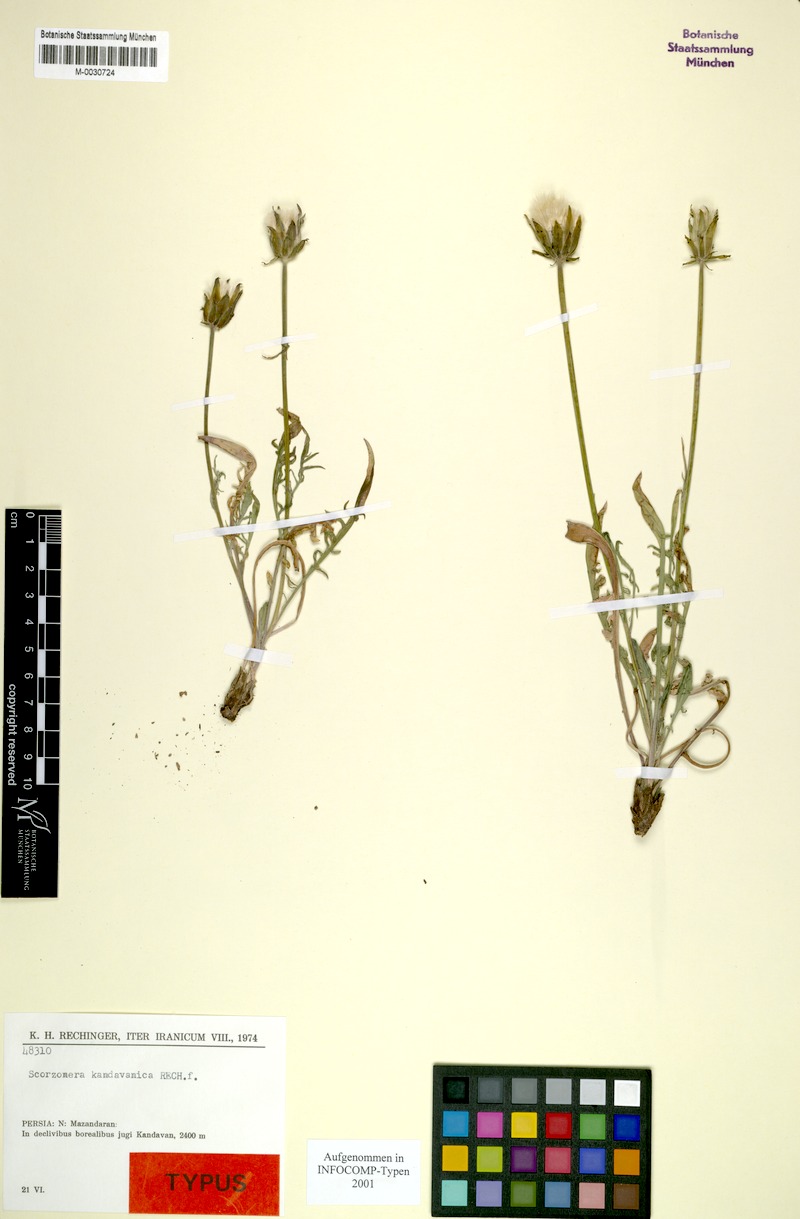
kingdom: Plantae
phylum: Tracheophyta
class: Magnoliopsida
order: Asterales
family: Asteraceae
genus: Scorzonera
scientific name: Scorzonera kandavanica
